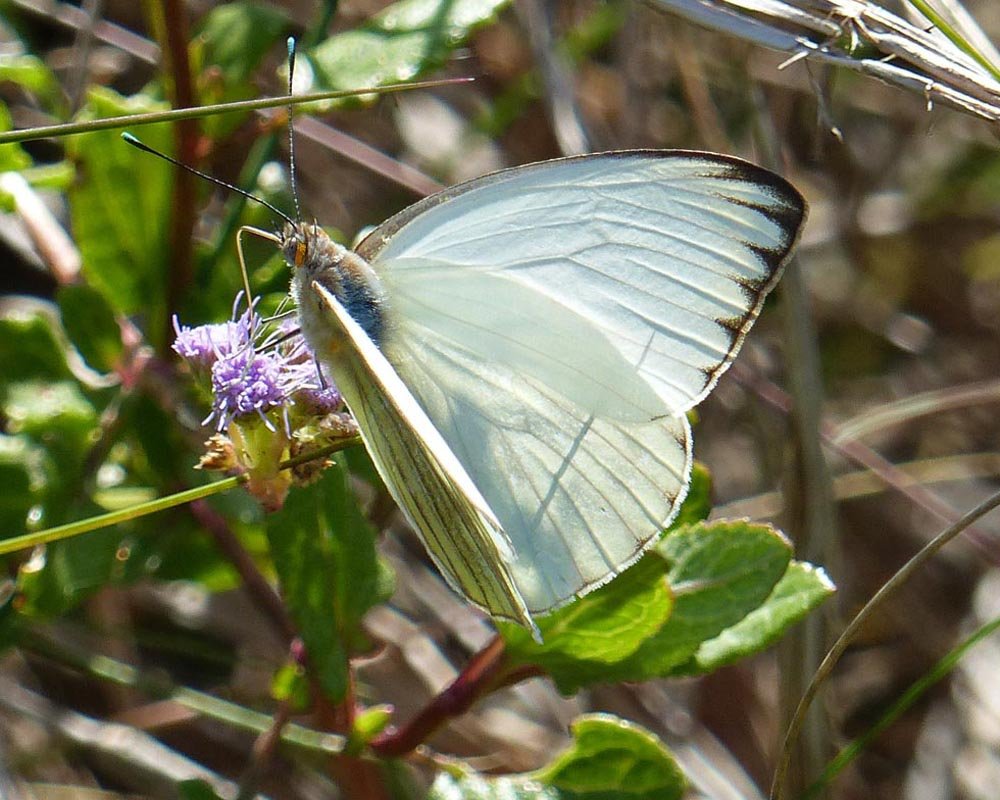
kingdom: Animalia
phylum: Arthropoda
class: Insecta
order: Lepidoptera
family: Pieridae
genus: Ascia
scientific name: Ascia monuste
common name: Great Southern White
